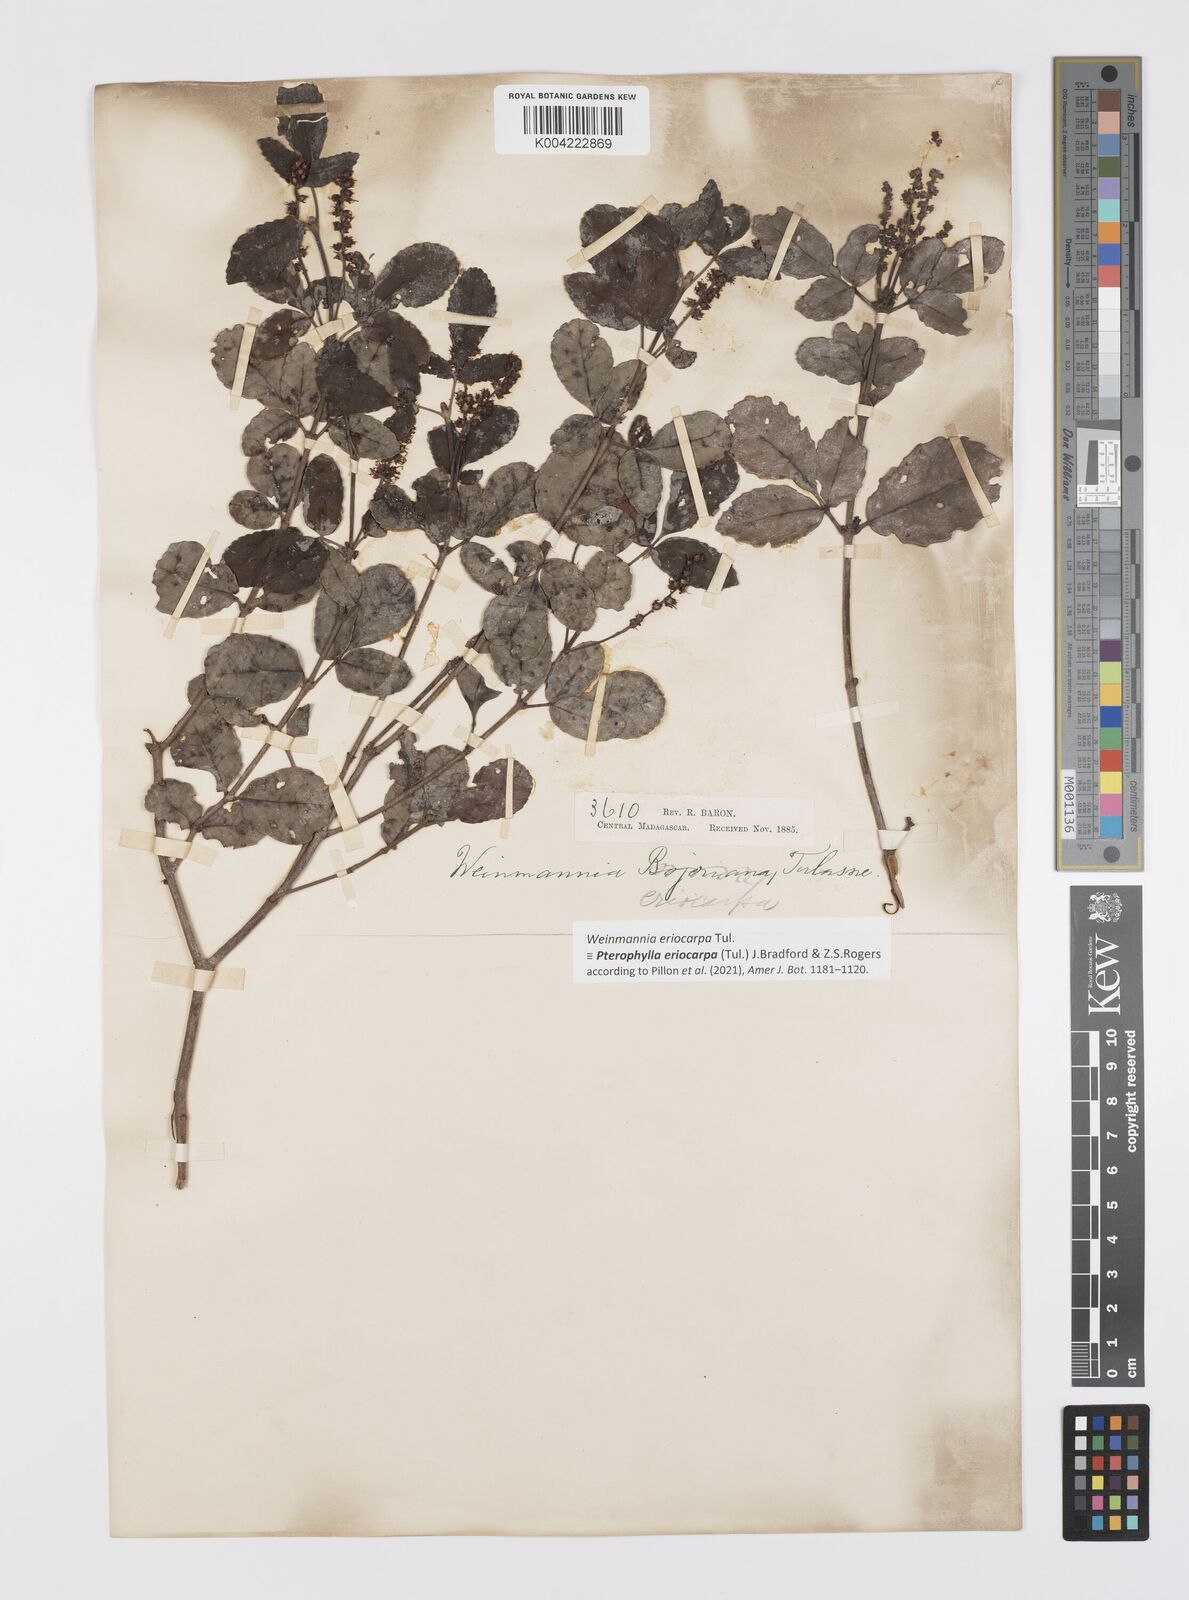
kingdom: Plantae
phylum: Tracheophyta
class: Magnoliopsida
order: Oxalidales
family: Cunoniaceae
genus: Pterophylla
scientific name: Pterophylla eriocarpa
